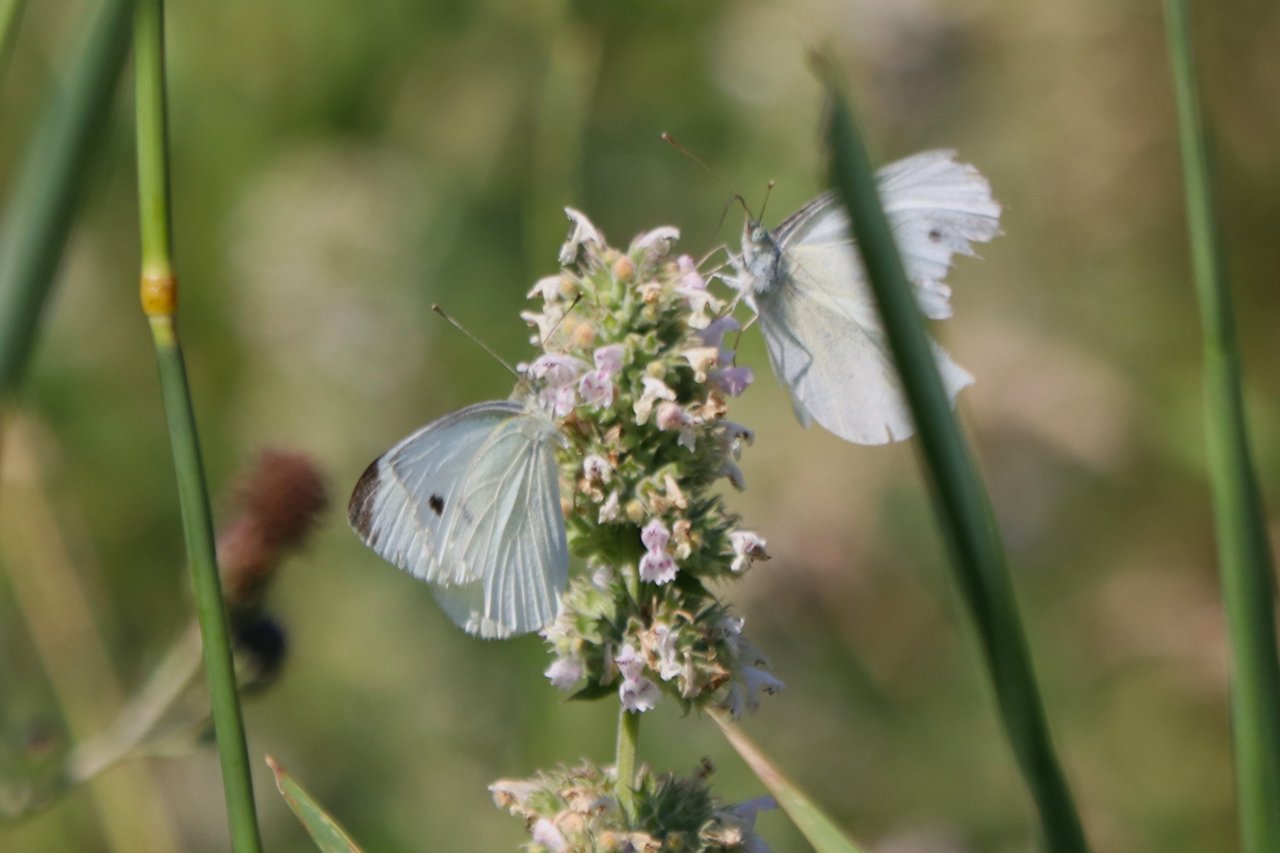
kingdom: Animalia
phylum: Arthropoda
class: Insecta
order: Lepidoptera
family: Pieridae
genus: Pieris
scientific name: Pieris rapae
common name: Cabbage White
